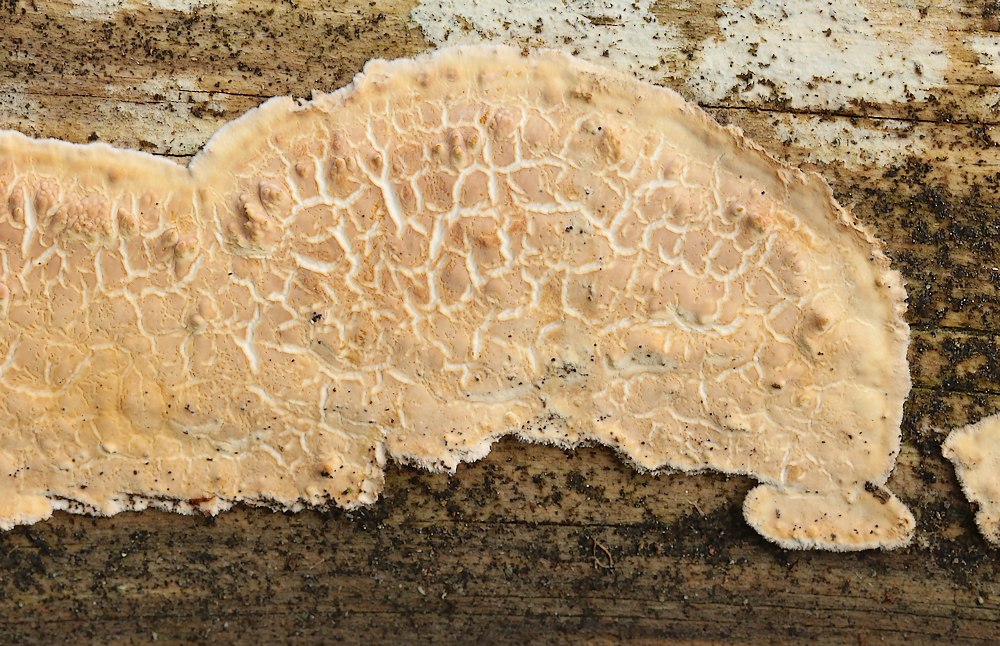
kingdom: Fungi
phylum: Basidiomycota
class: Agaricomycetes
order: Polyporales
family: Dacryobolaceae
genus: Dacryobolus
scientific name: Dacryobolus karstenii
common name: glat vulkanskorpe
